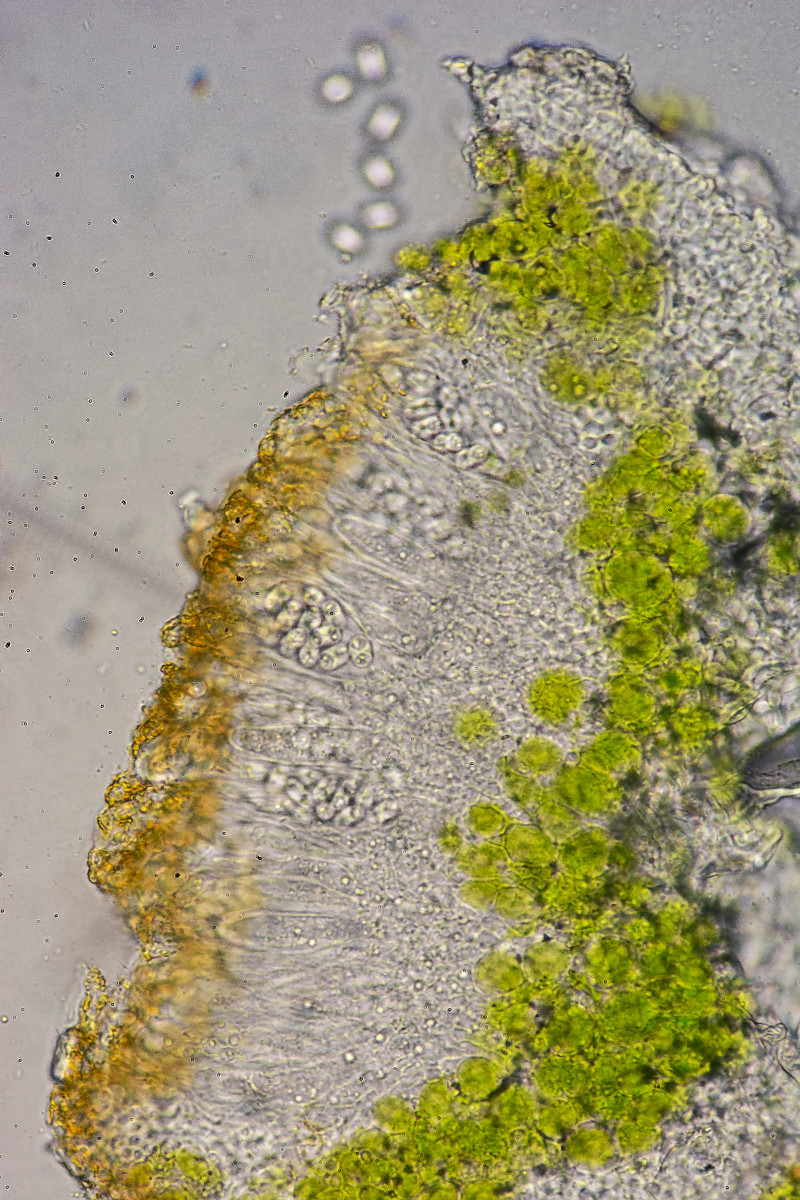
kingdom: Fungi
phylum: Ascomycota
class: Lecanoromycetes
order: Teloschistales
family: Teloschistaceae
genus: Athallia
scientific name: Athallia cerinella
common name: kvist-orangelav
